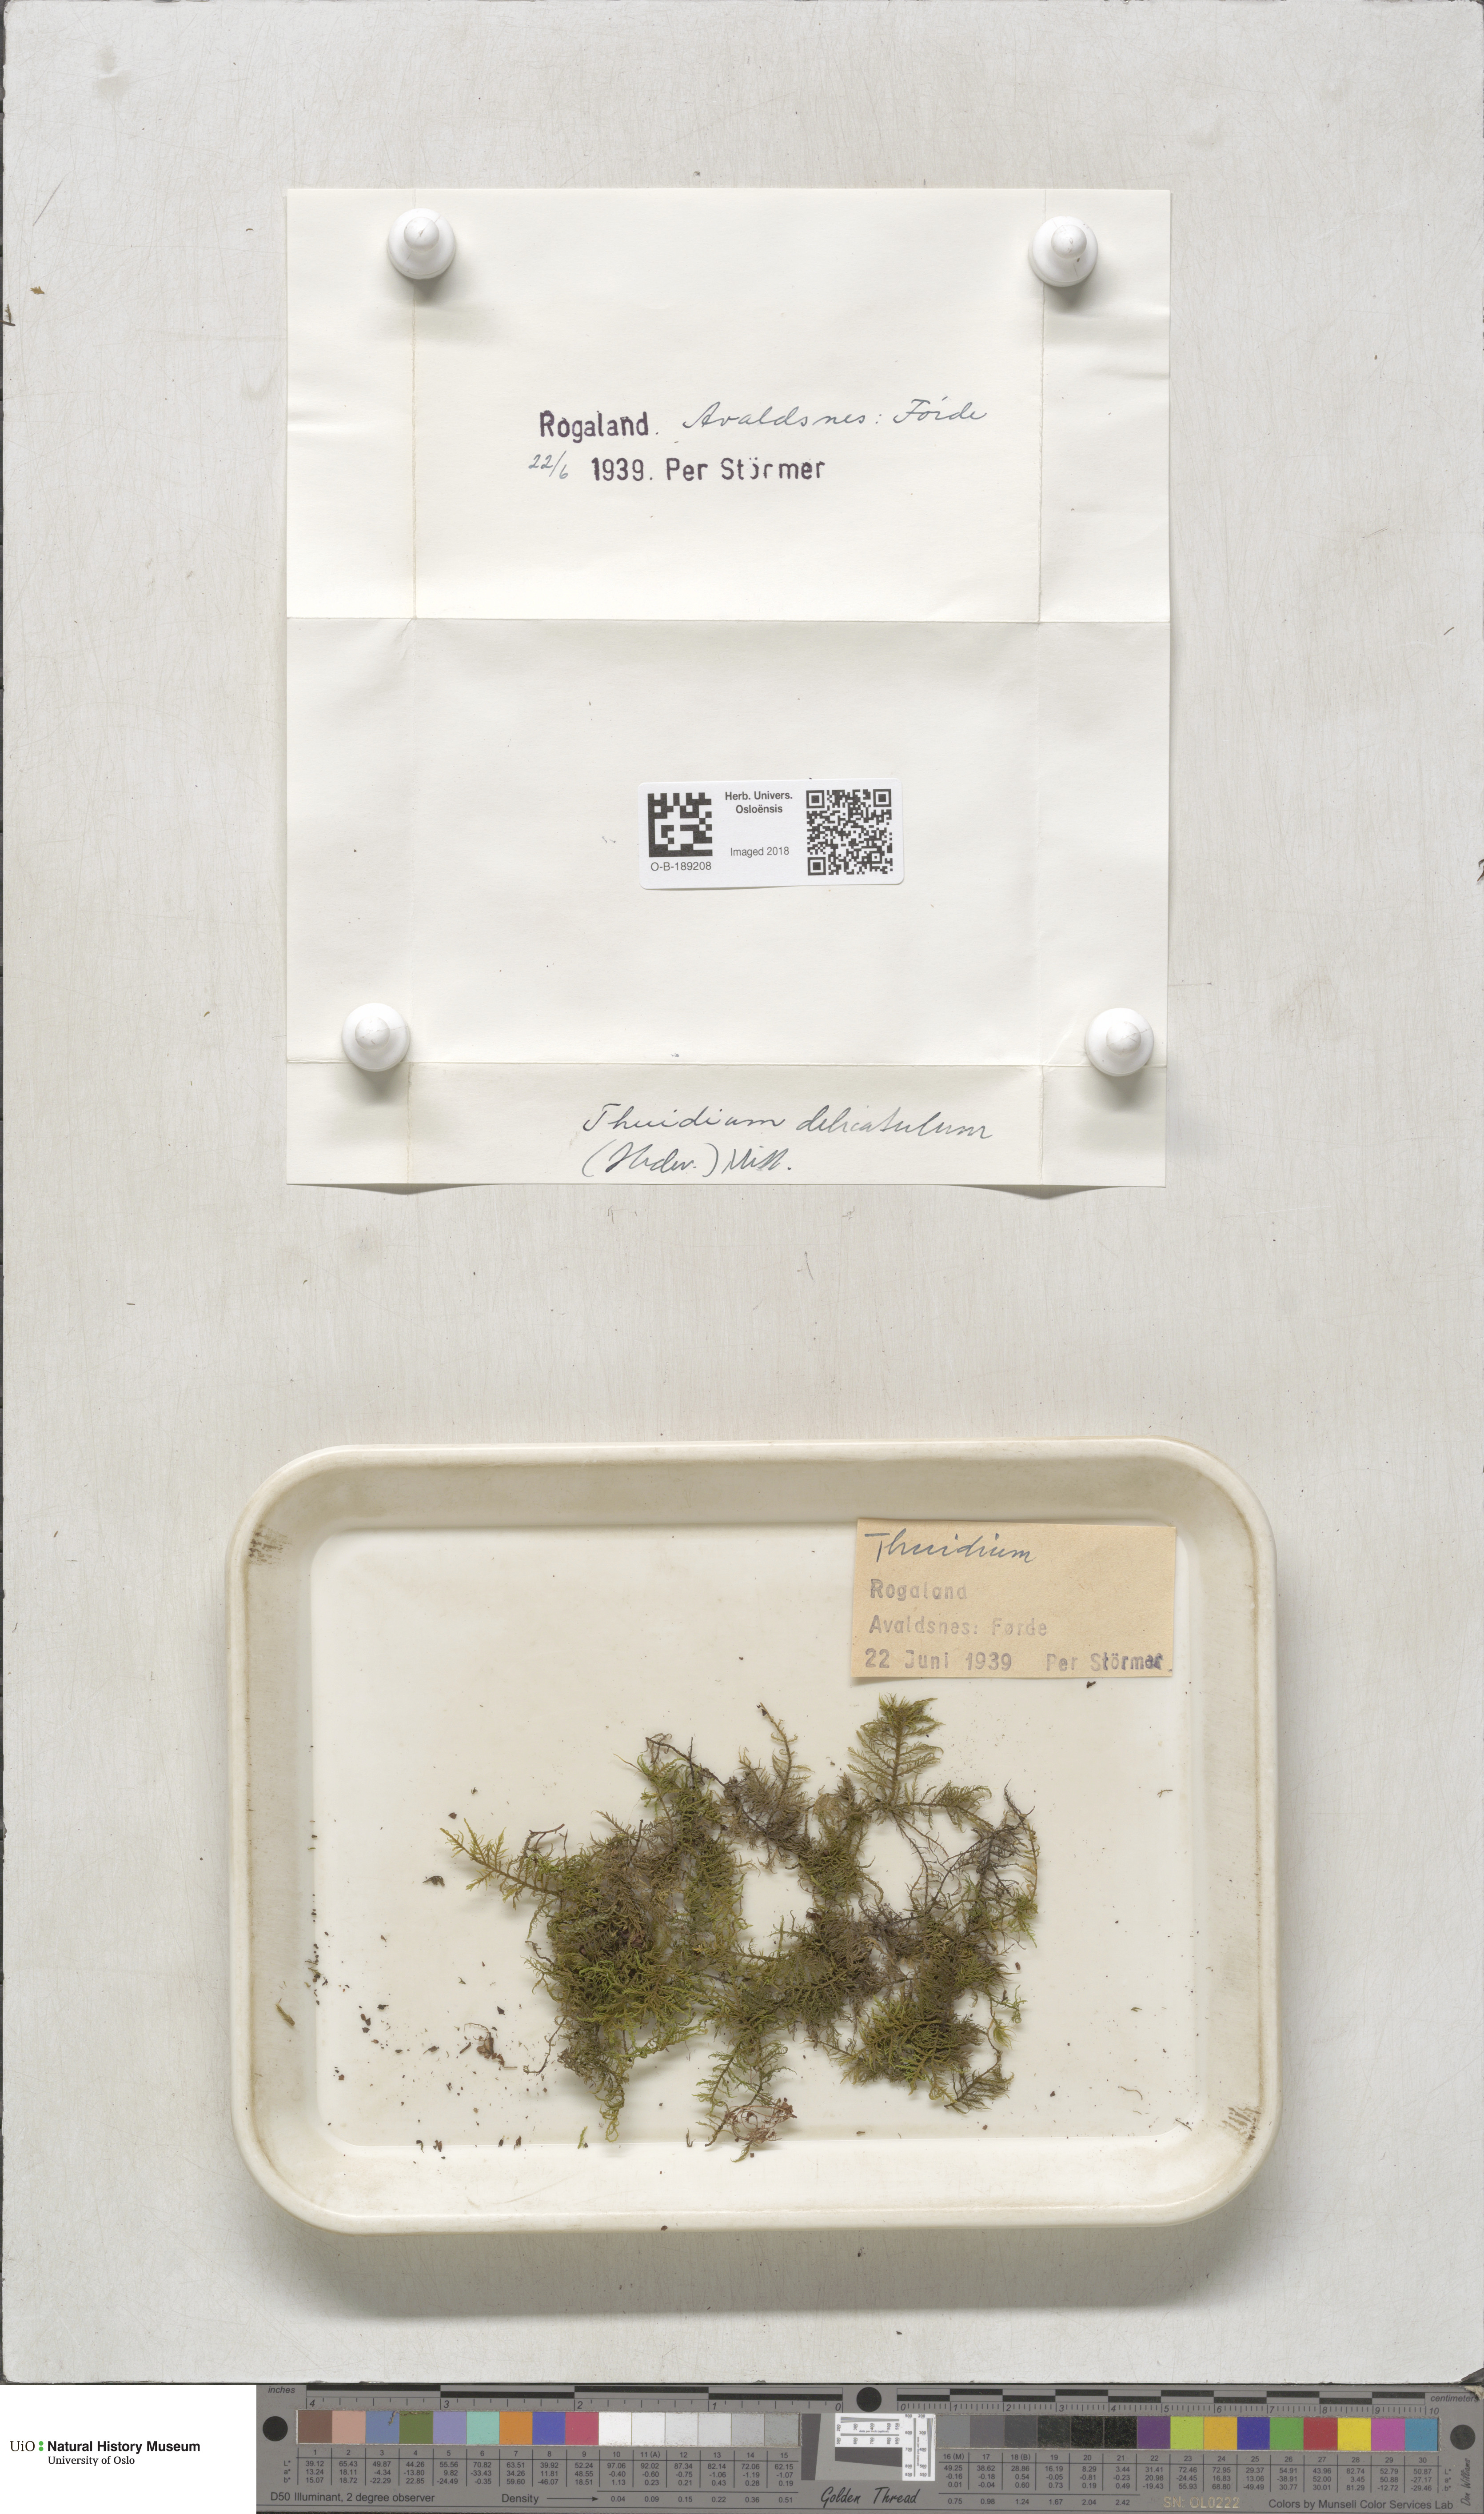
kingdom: Plantae
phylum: Bryophyta
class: Bryopsida
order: Hypnales
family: Thuidiaceae
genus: Thuidium
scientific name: Thuidium delicatulum
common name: Delicate fern moss
